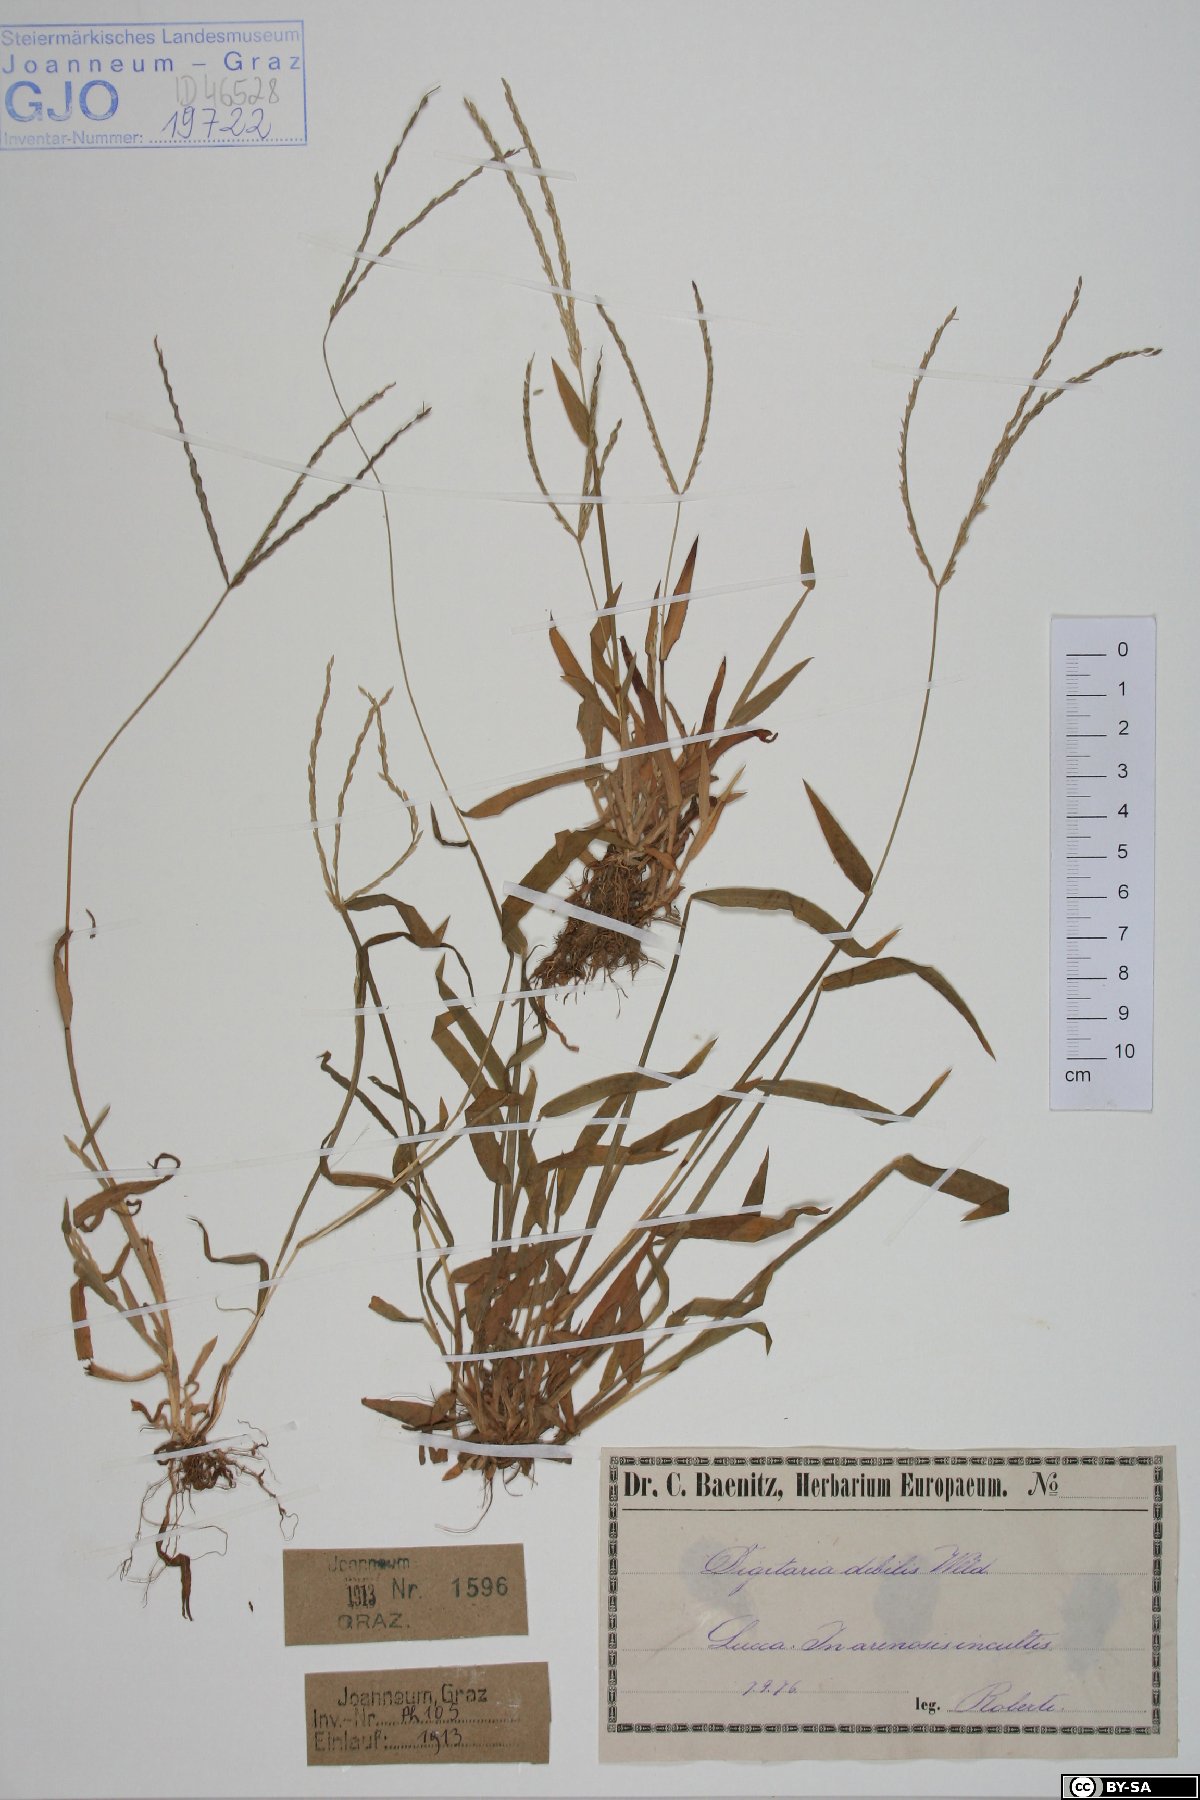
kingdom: Plantae
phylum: Tracheophyta
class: Liliopsida
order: Poales
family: Poaceae
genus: Digitaria
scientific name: Digitaria debilis
